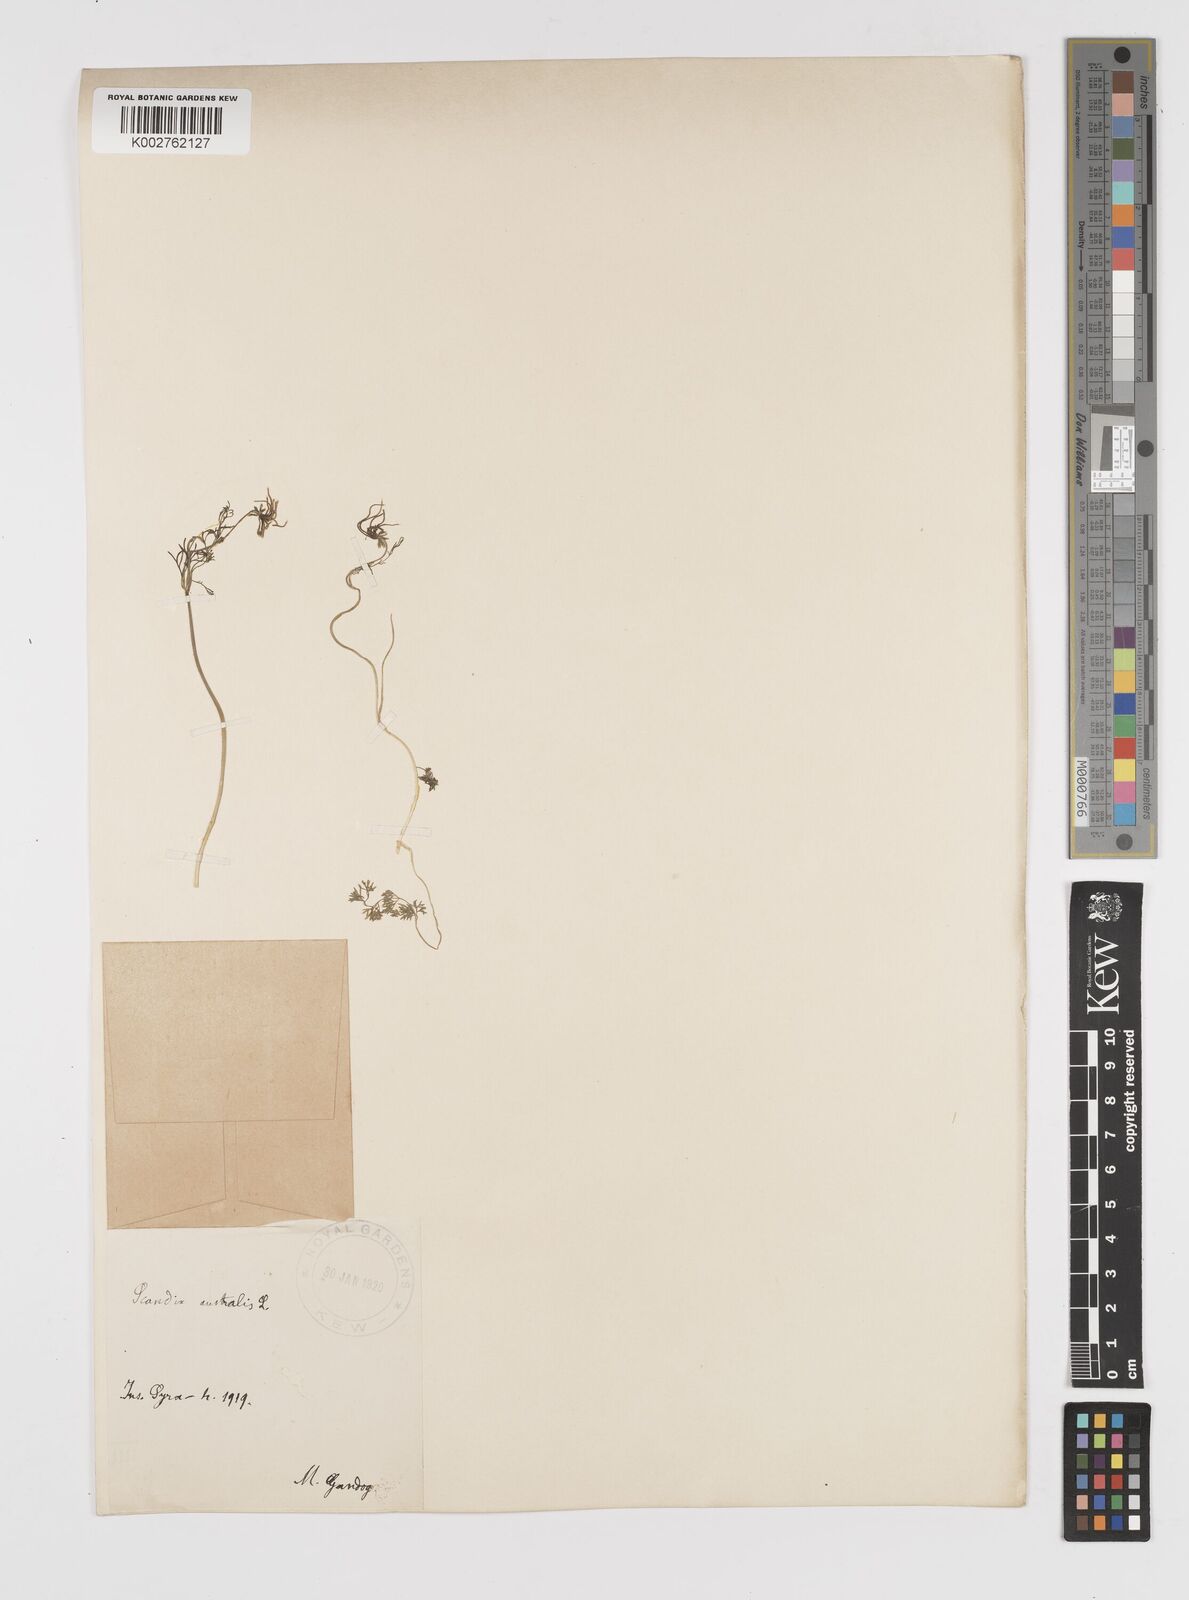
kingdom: Plantae
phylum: Tracheophyta
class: Magnoliopsida
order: Apiales
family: Apiaceae
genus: Scandix
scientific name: Scandix australis
